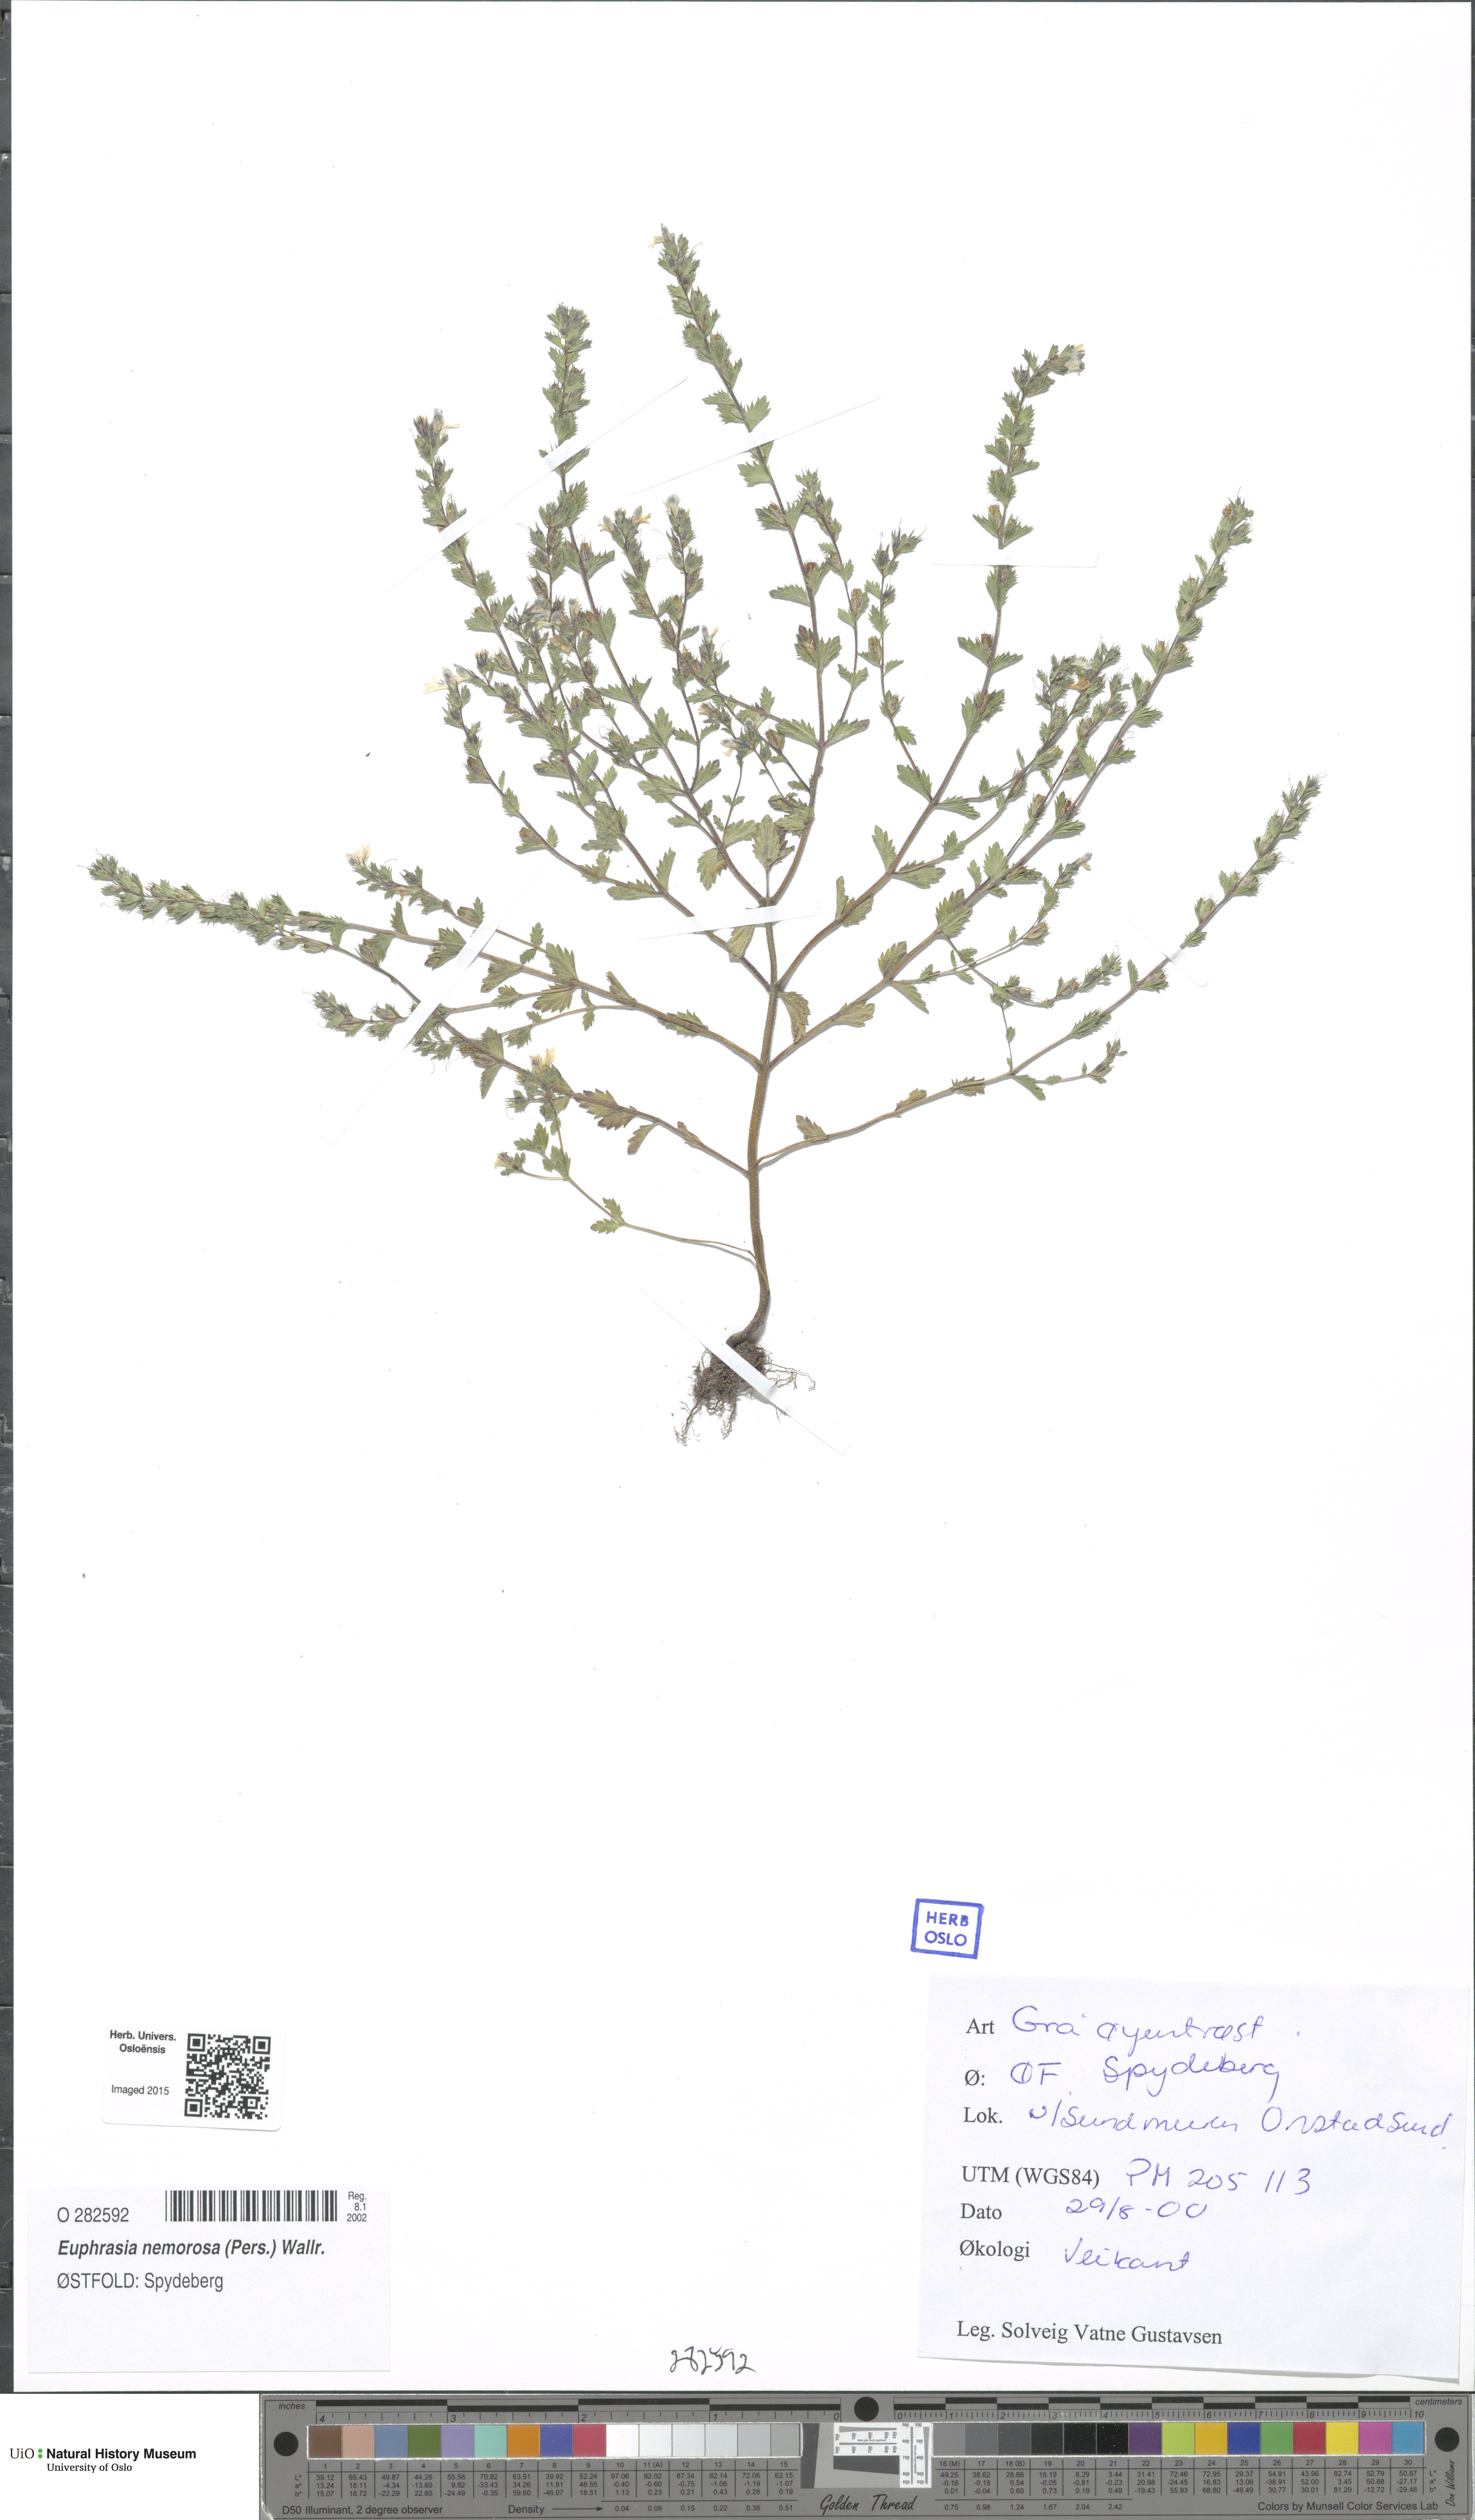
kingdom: Plantae
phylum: Tracheophyta
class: Magnoliopsida
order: Lamiales
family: Orobanchaceae
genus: Euphrasia
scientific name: Euphrasia nemorosa
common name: Common eyebright
